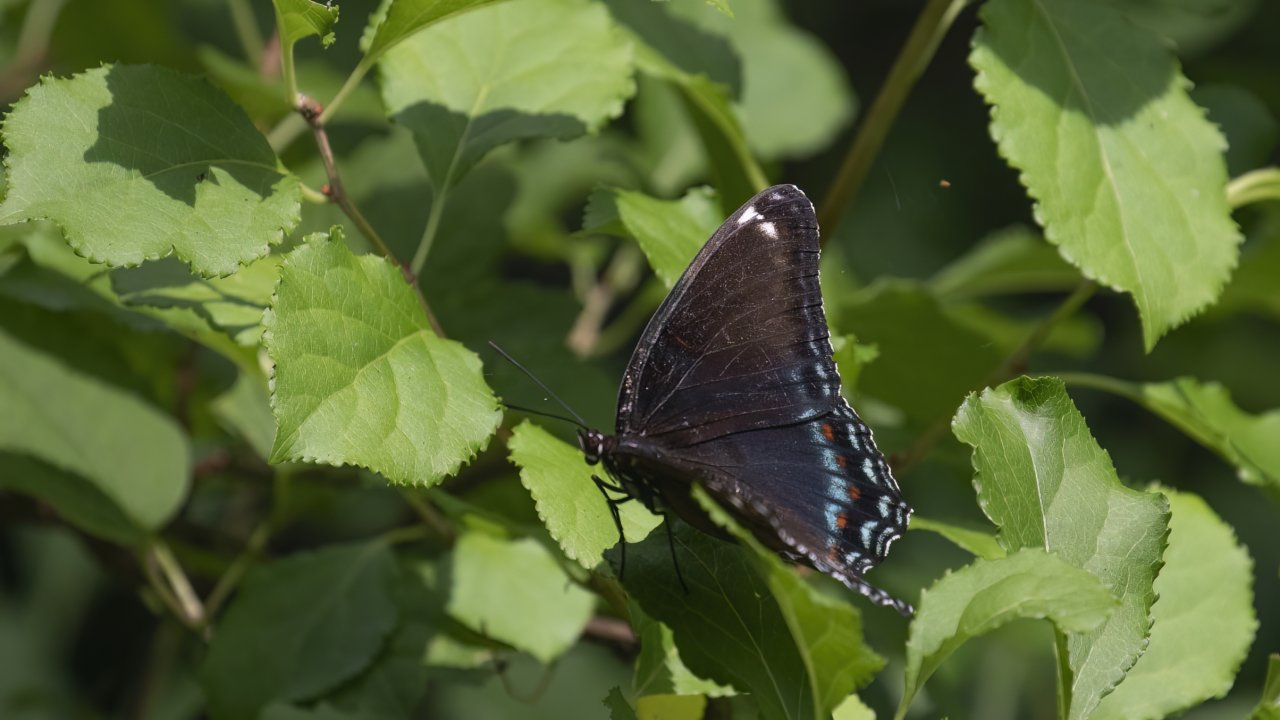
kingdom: Animalia
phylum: Arthropoda
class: Insecta
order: Lepidoptera
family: Nymphalidae
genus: Limenitis
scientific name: Limenitis arthemis
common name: Red-spotted Admiral
